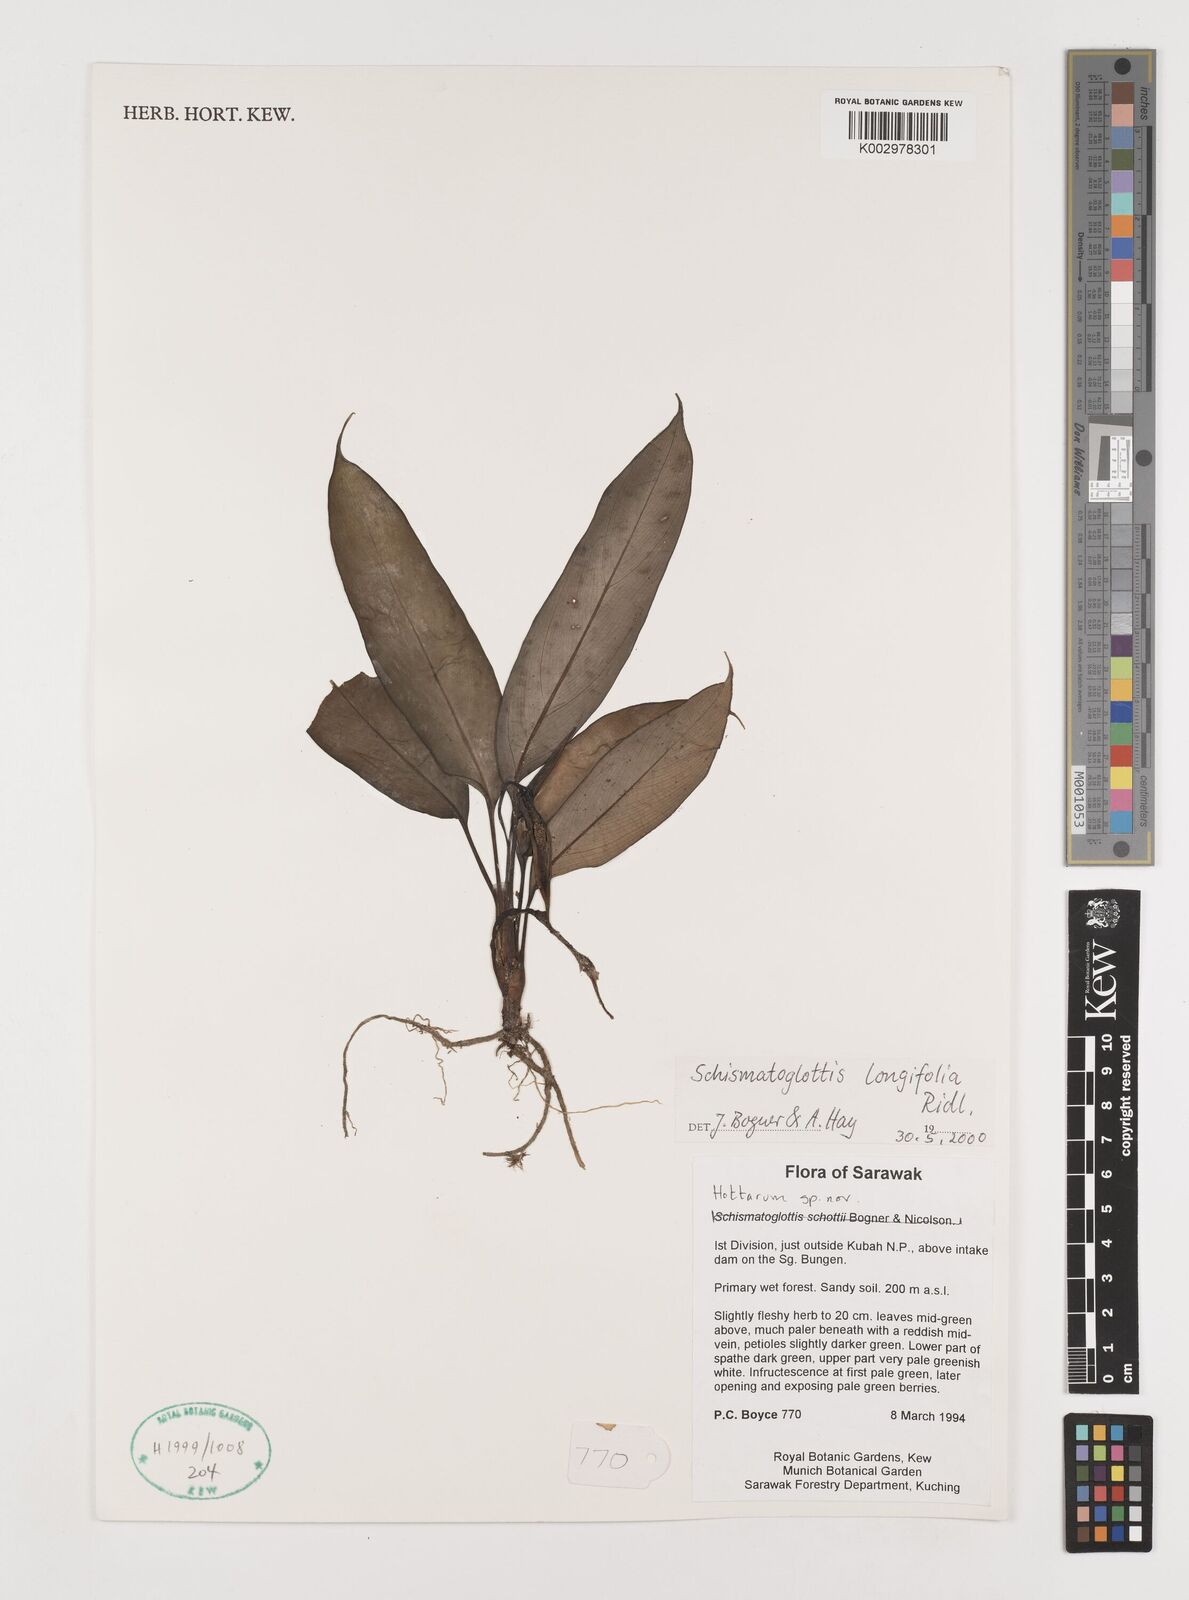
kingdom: Plantae
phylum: Tracheophyta
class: Liliopsida
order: Alismatales
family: Araceae
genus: Vesta
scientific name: Vesta longifolia
